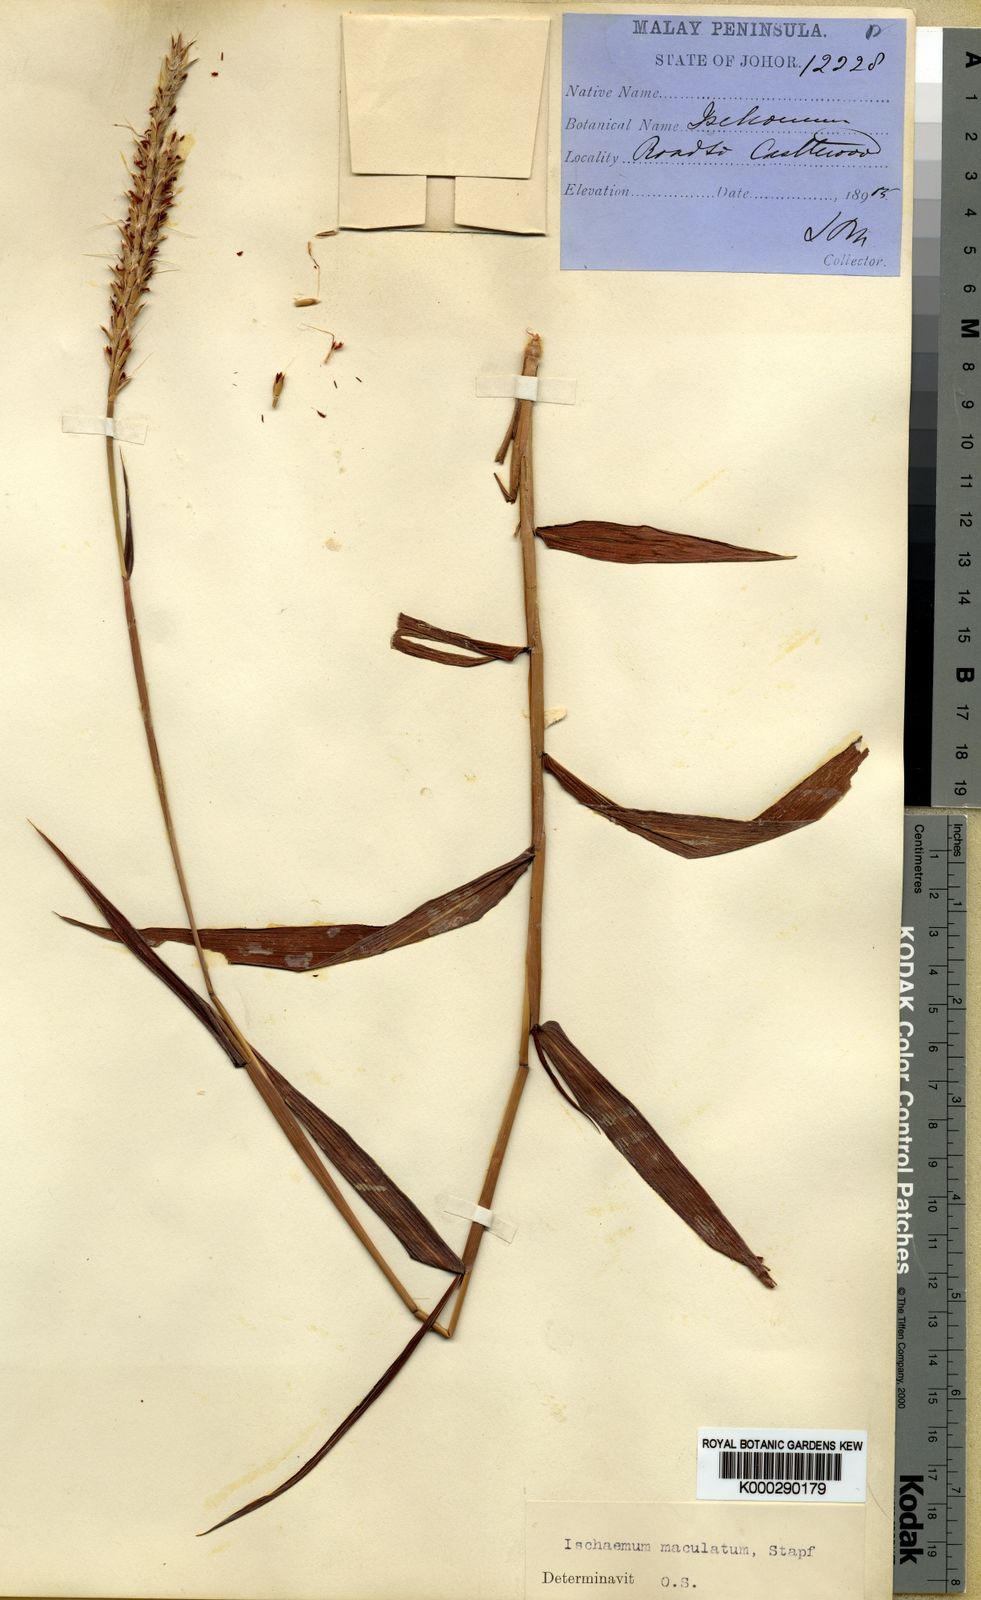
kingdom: Plantae
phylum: Tracheophyta
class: Liliopsida
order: Poales
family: Poaceae
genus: Ischaemum
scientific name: Ischaemum feildingianum
